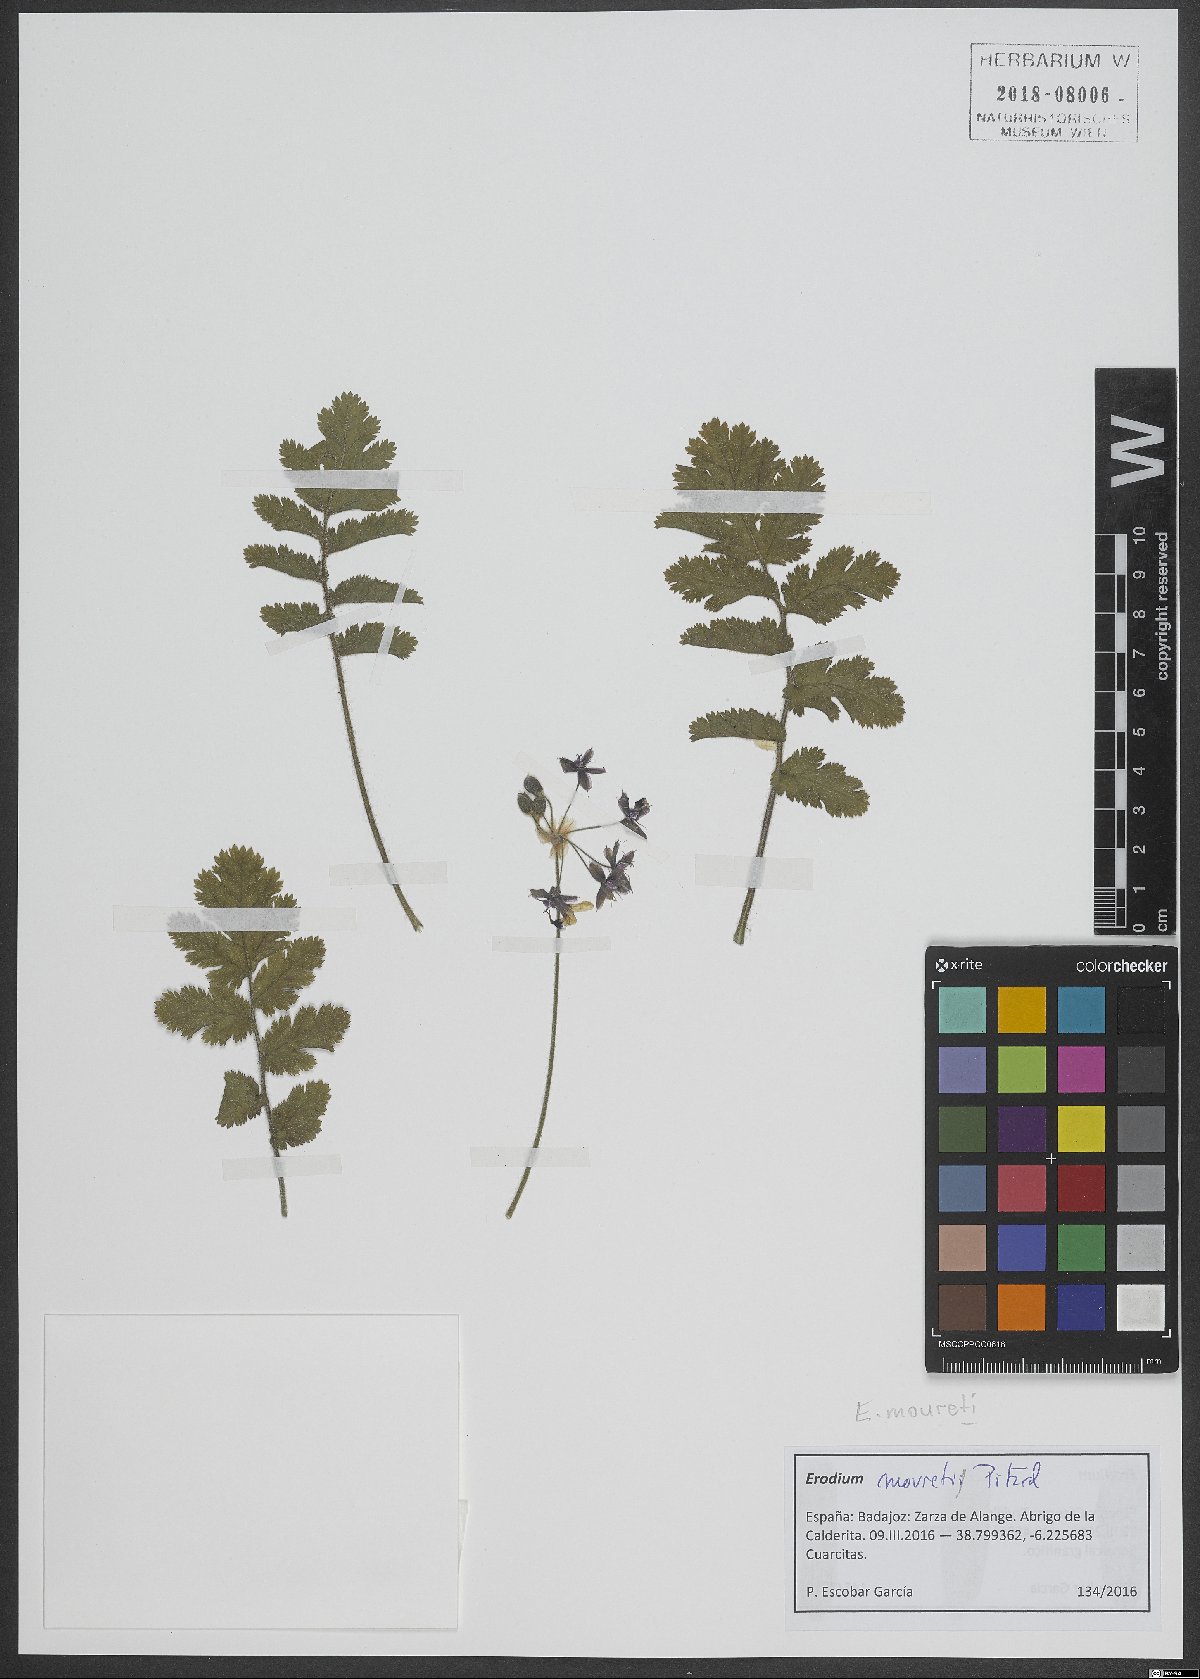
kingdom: Plantae
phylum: Tracheophyta
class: Magnoliopsida
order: Geraniales
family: Geraniaceae
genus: Erodium
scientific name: Erodium mouretii
